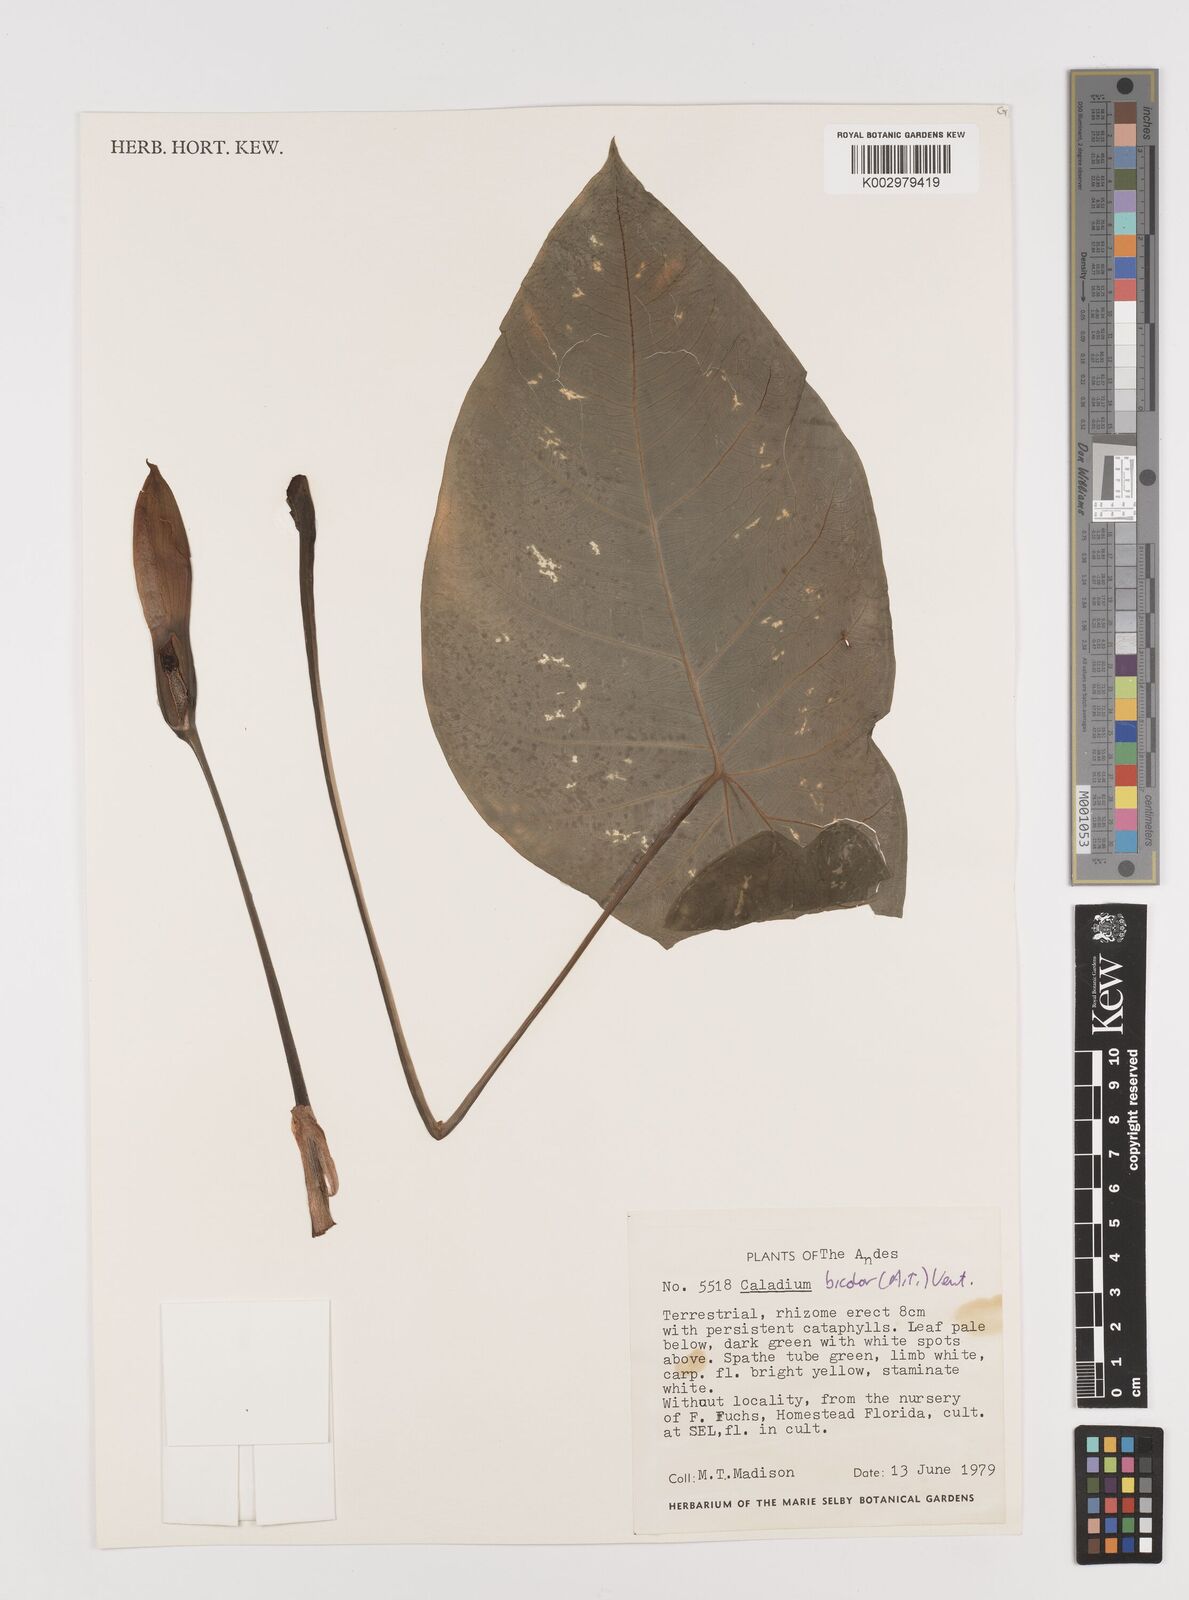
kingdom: Plantae
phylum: Tracheophyta
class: Liliopsida
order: Alismatales
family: Araceae
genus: Caladium
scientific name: Caladium bicolor
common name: Artist's pallet
